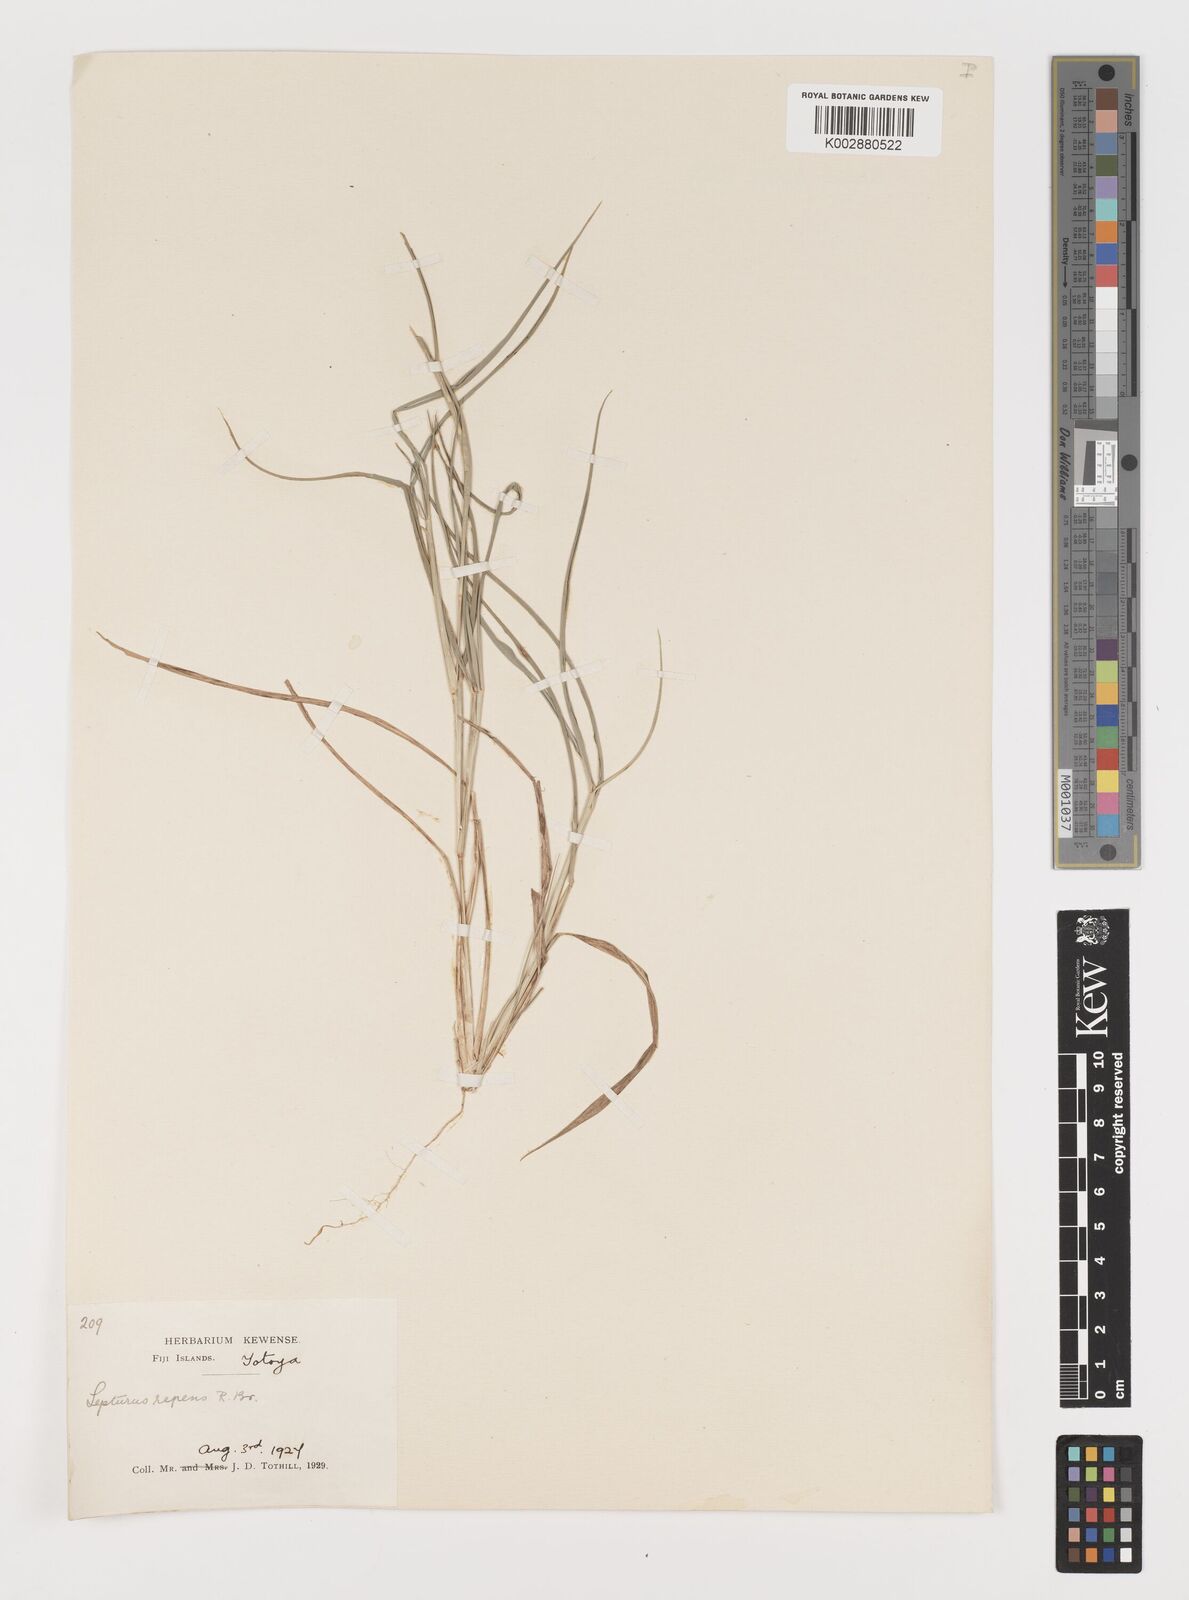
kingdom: Plantae
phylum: Tracheophyta
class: Liliopsida
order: Poales
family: Poaceae
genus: Lepturus
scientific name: Lepturus repens
